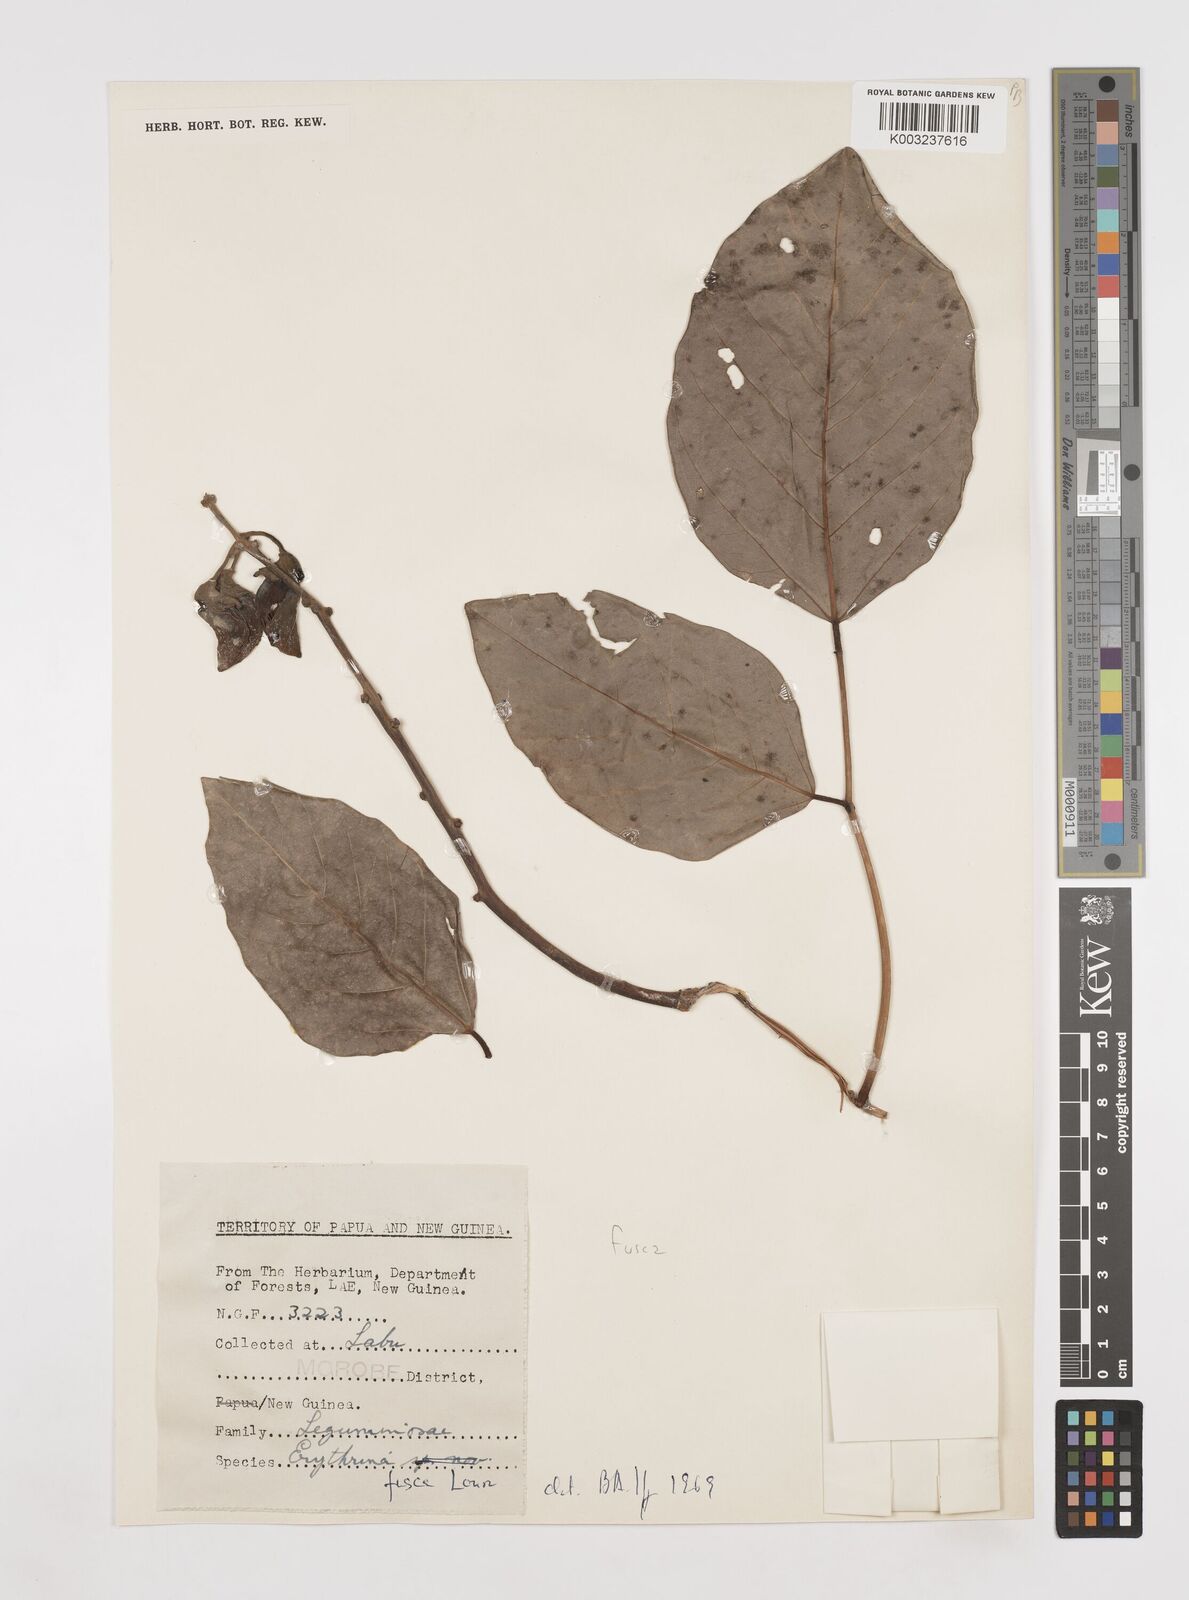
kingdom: Plantae
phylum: Tracheophyta
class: Magnoliopsida
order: Fabales
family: Fabaceae
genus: Erythrina
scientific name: Erythrina fusca
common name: Coral-bean
